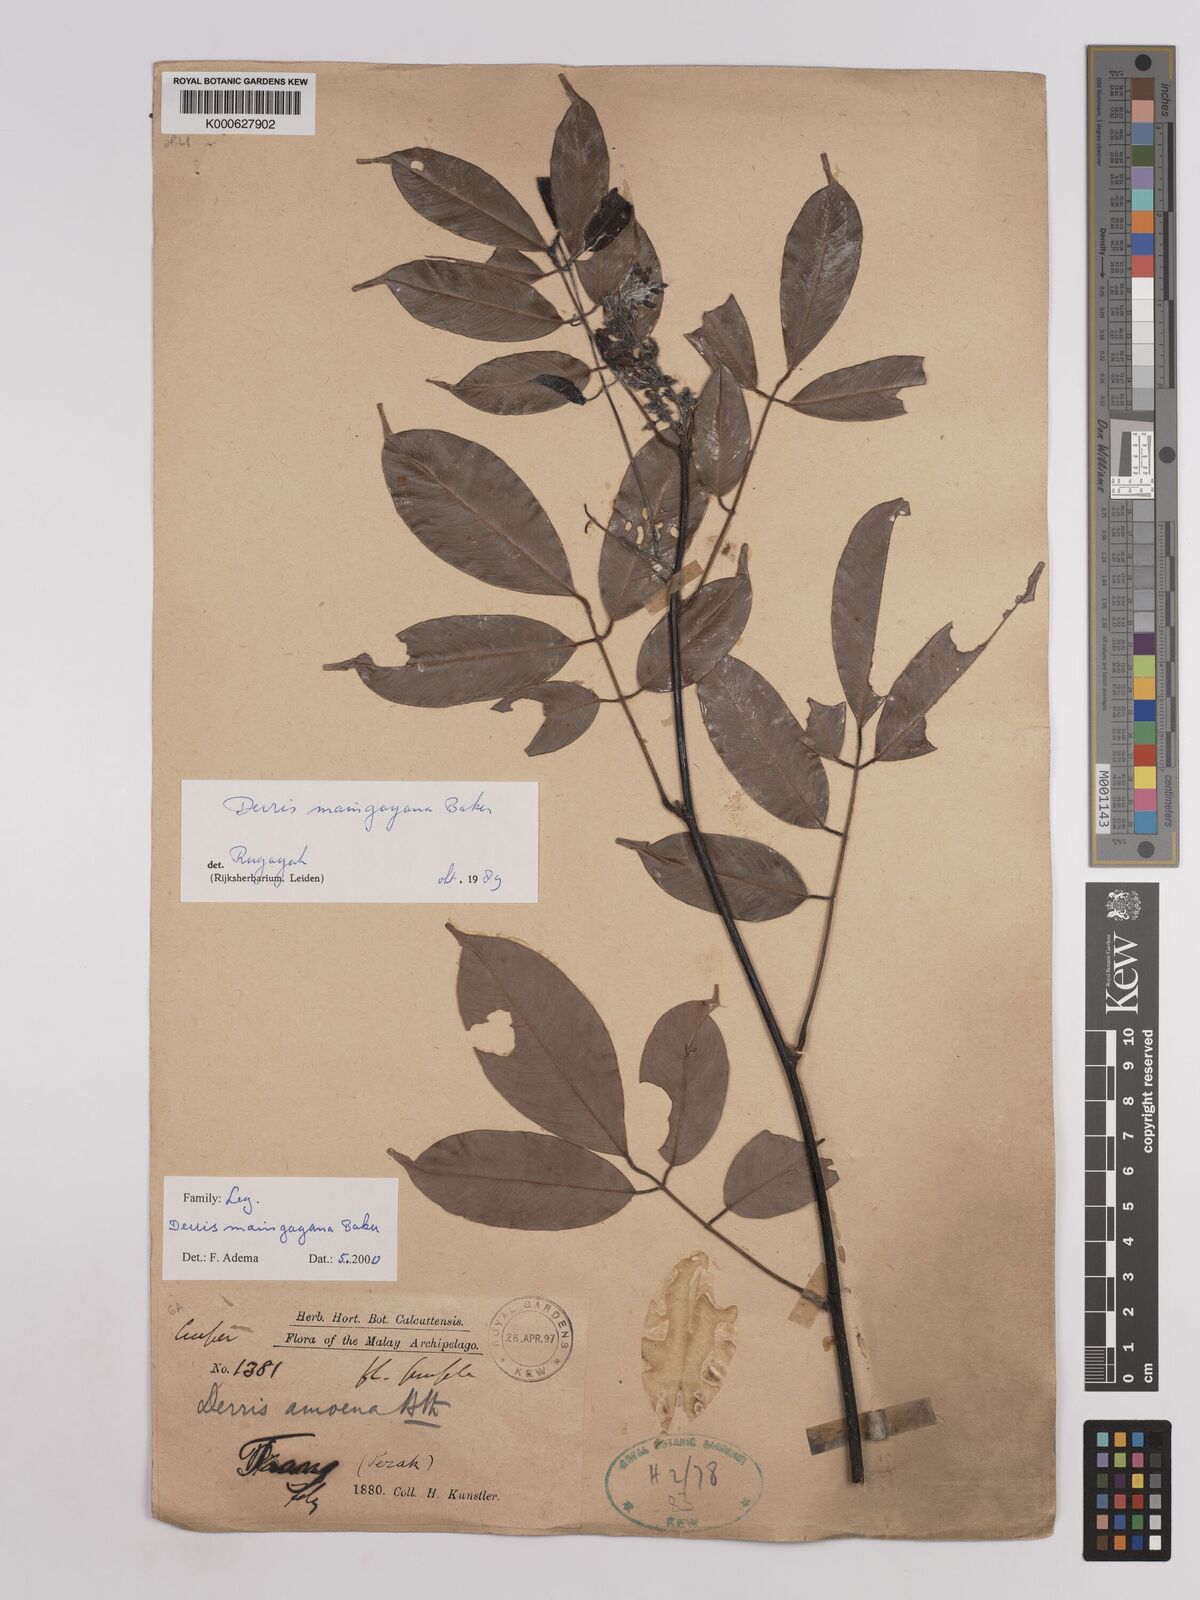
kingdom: Plantae
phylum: Tracheophyta
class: Magnoliopsida
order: Fabales
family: Fabaceae
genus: Derris
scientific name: Derris amoena
